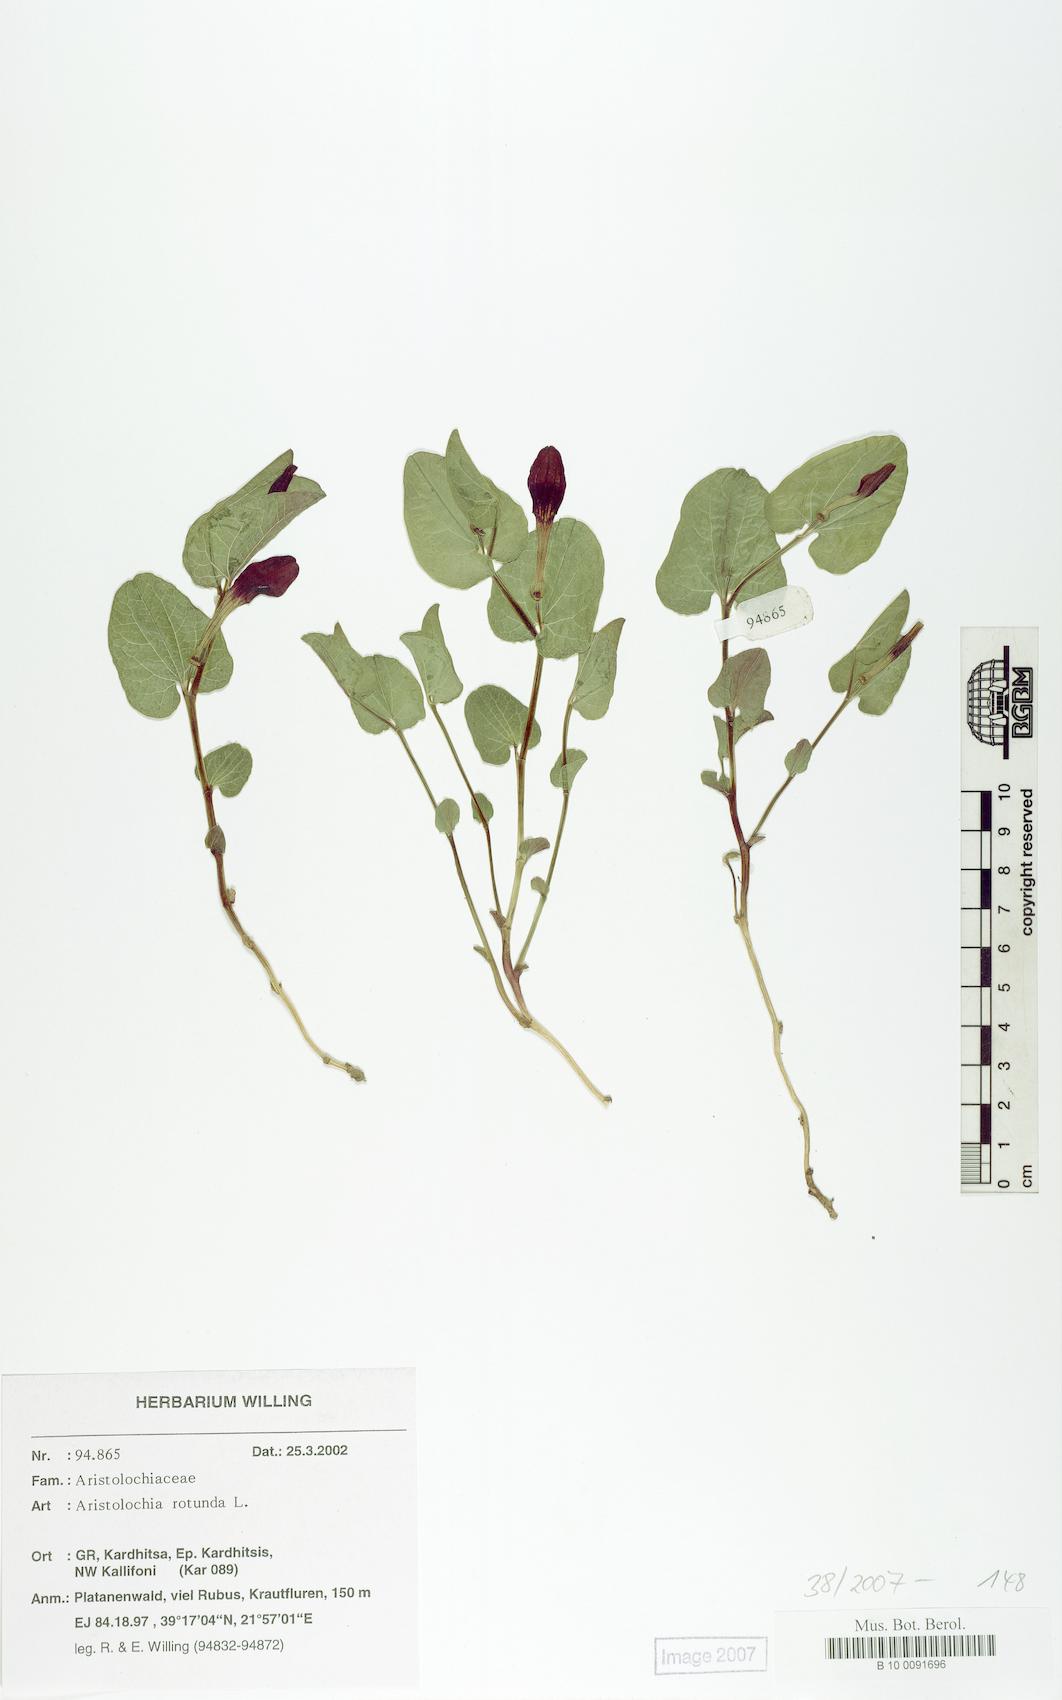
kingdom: Plantae
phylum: Tracheophyta
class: Magnoliopsida
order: Piperales
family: Aristolochiaceae
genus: Aristolochia
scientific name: Aristolochia rotunda
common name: Smearwort
